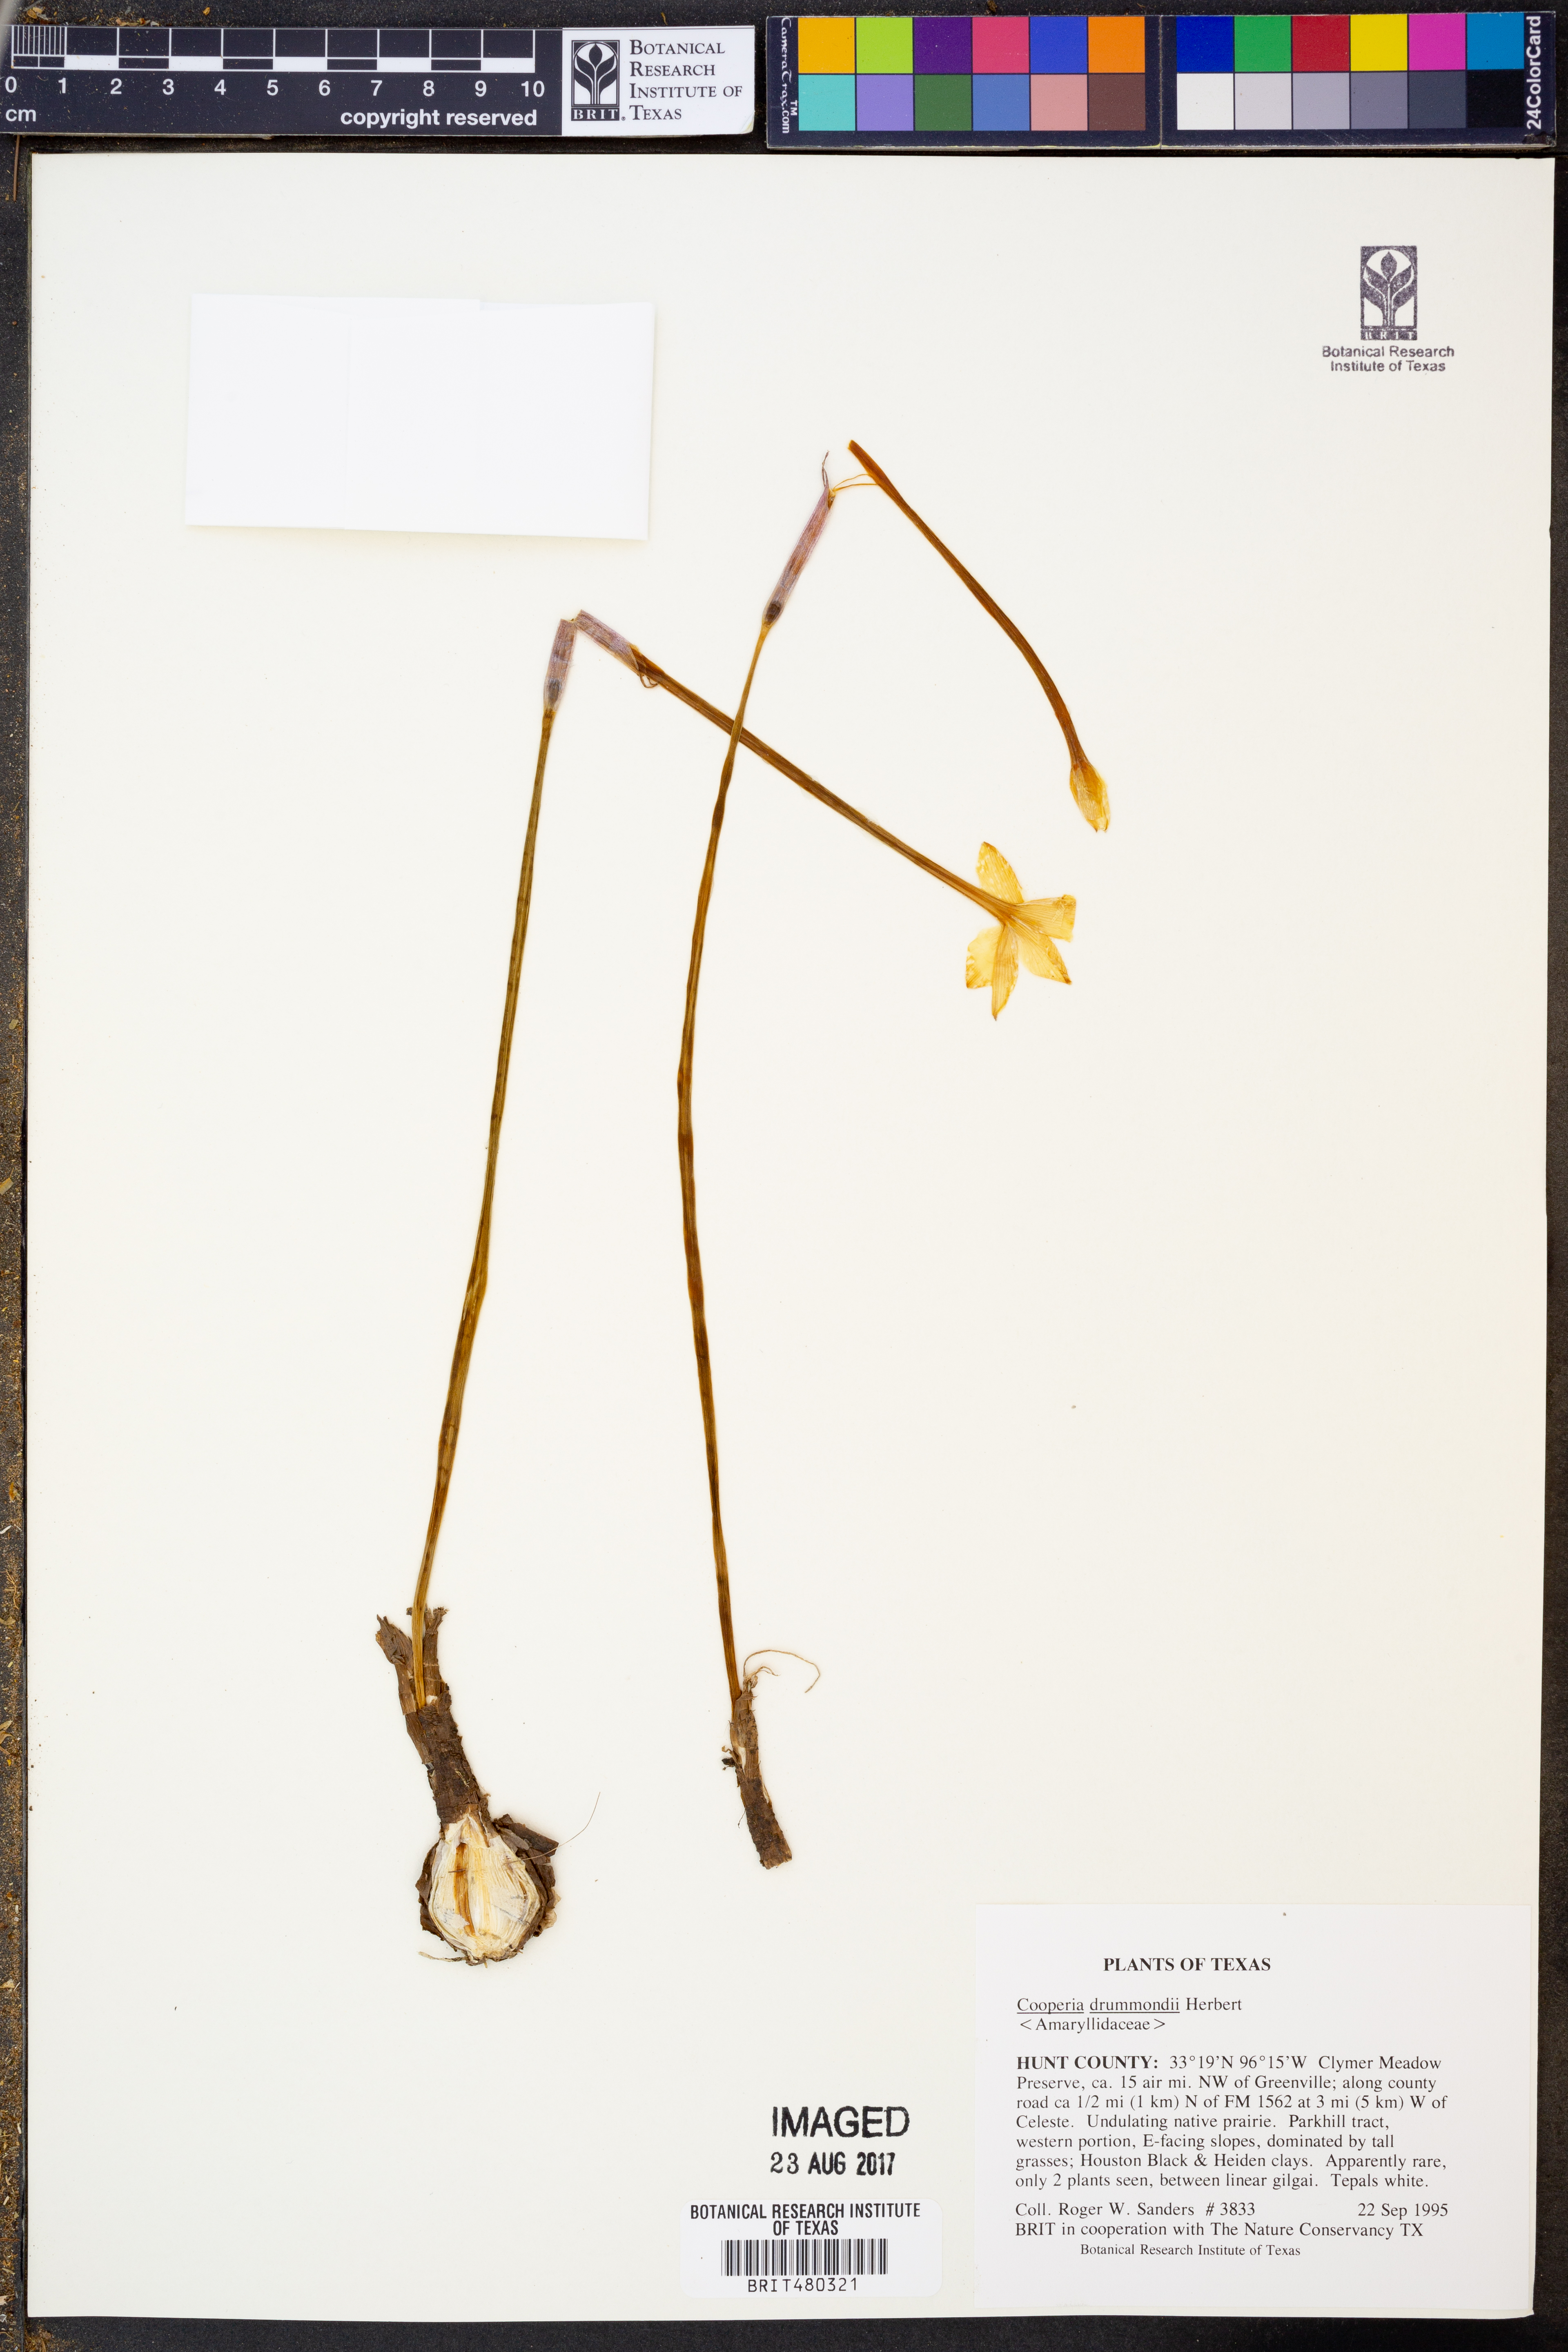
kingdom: Plantae
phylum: Tracheophyta
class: Liliopsida
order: Asparagales
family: Amaryllidaceae
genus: Zephyranthes
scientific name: Zephyranthes chlorosolen
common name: Evening rain-lily
